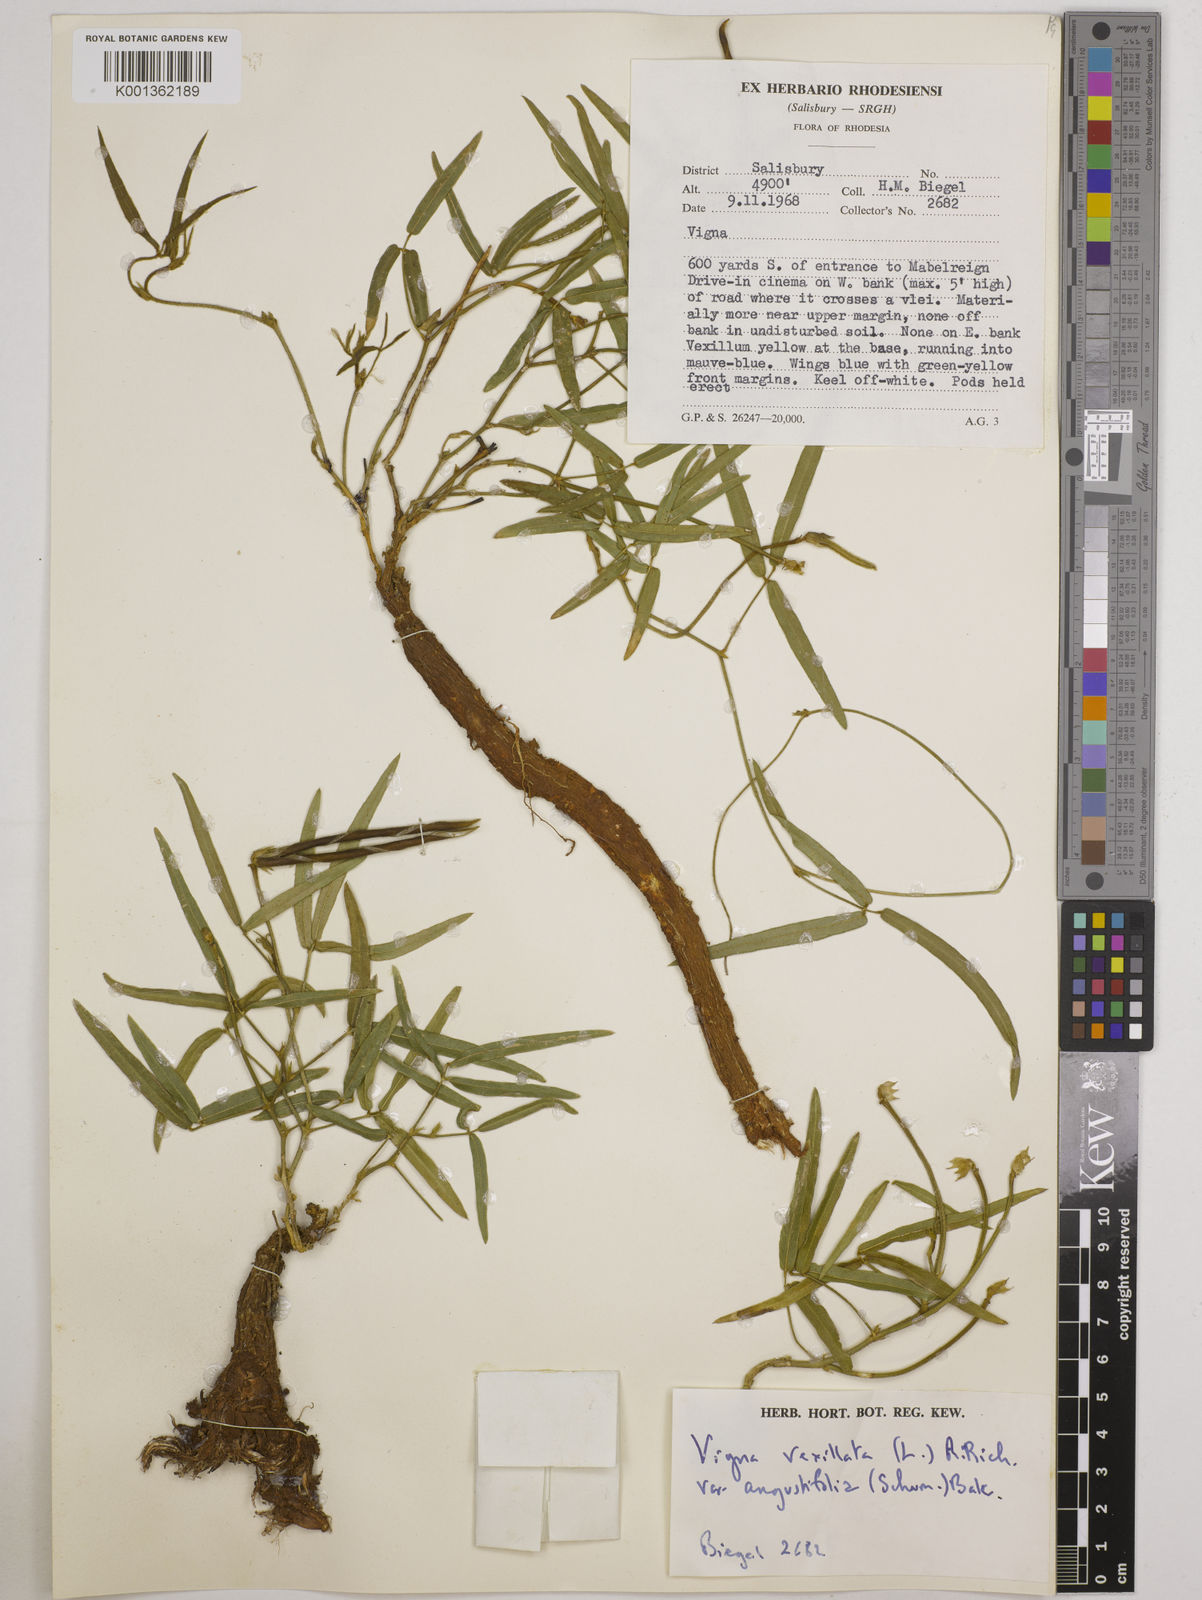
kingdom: Plantae
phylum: Tracheophyta
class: Magnoliopsida
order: Fabales
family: Fabaceae
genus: Vigna
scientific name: Vigna vexillata
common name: Zombi pea
